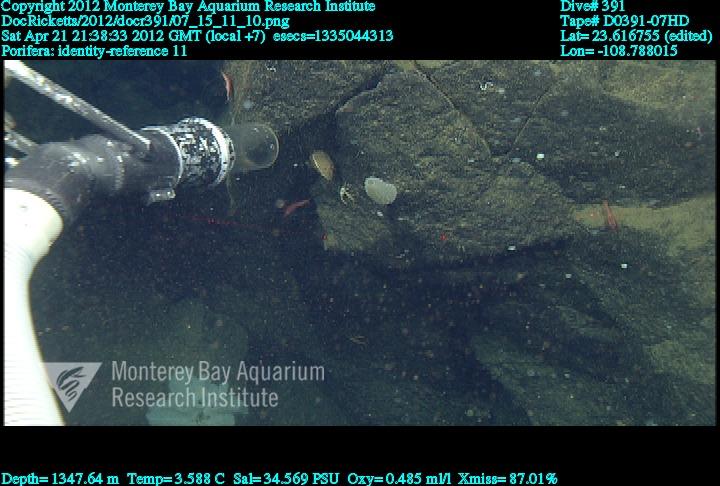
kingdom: Animalia
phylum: Porifera
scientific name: Porifera
